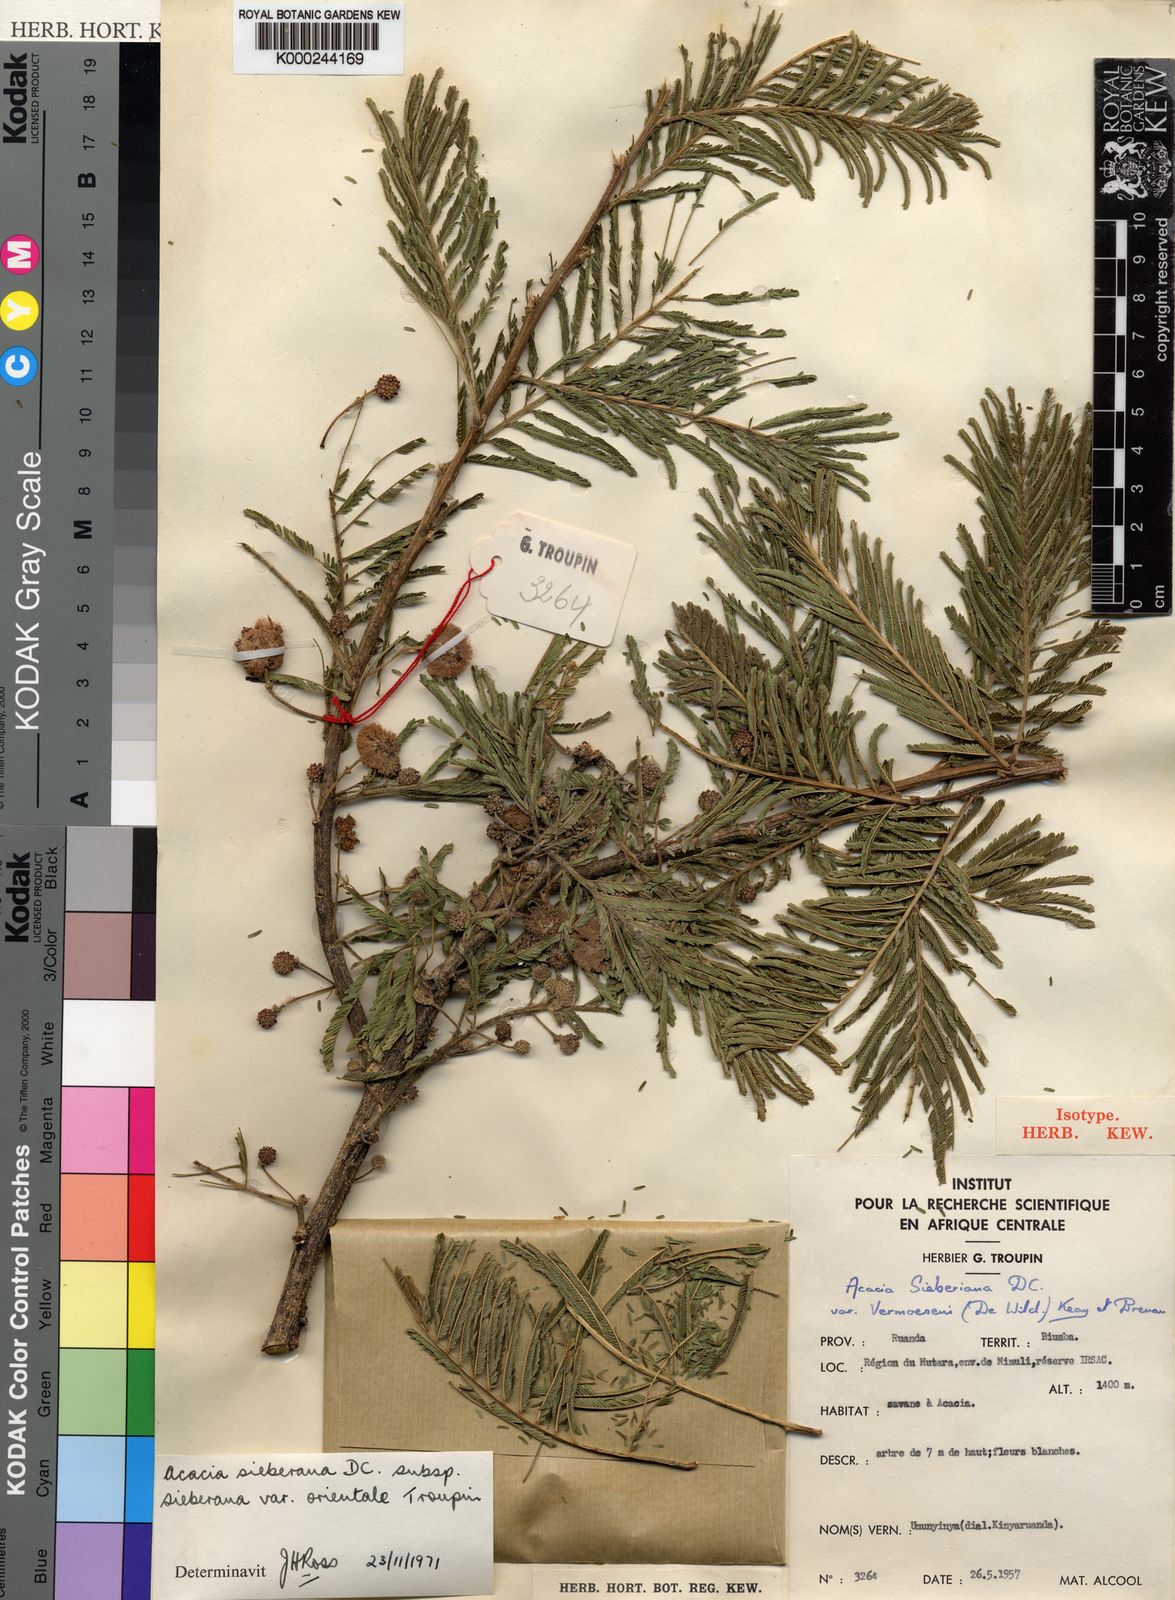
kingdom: Plantae
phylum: Tracheophyta
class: Magnoliopsida
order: Fabales
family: Fabaceae
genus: Vachellia
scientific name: Vachellia sieberiana
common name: Flat-topped thorn
